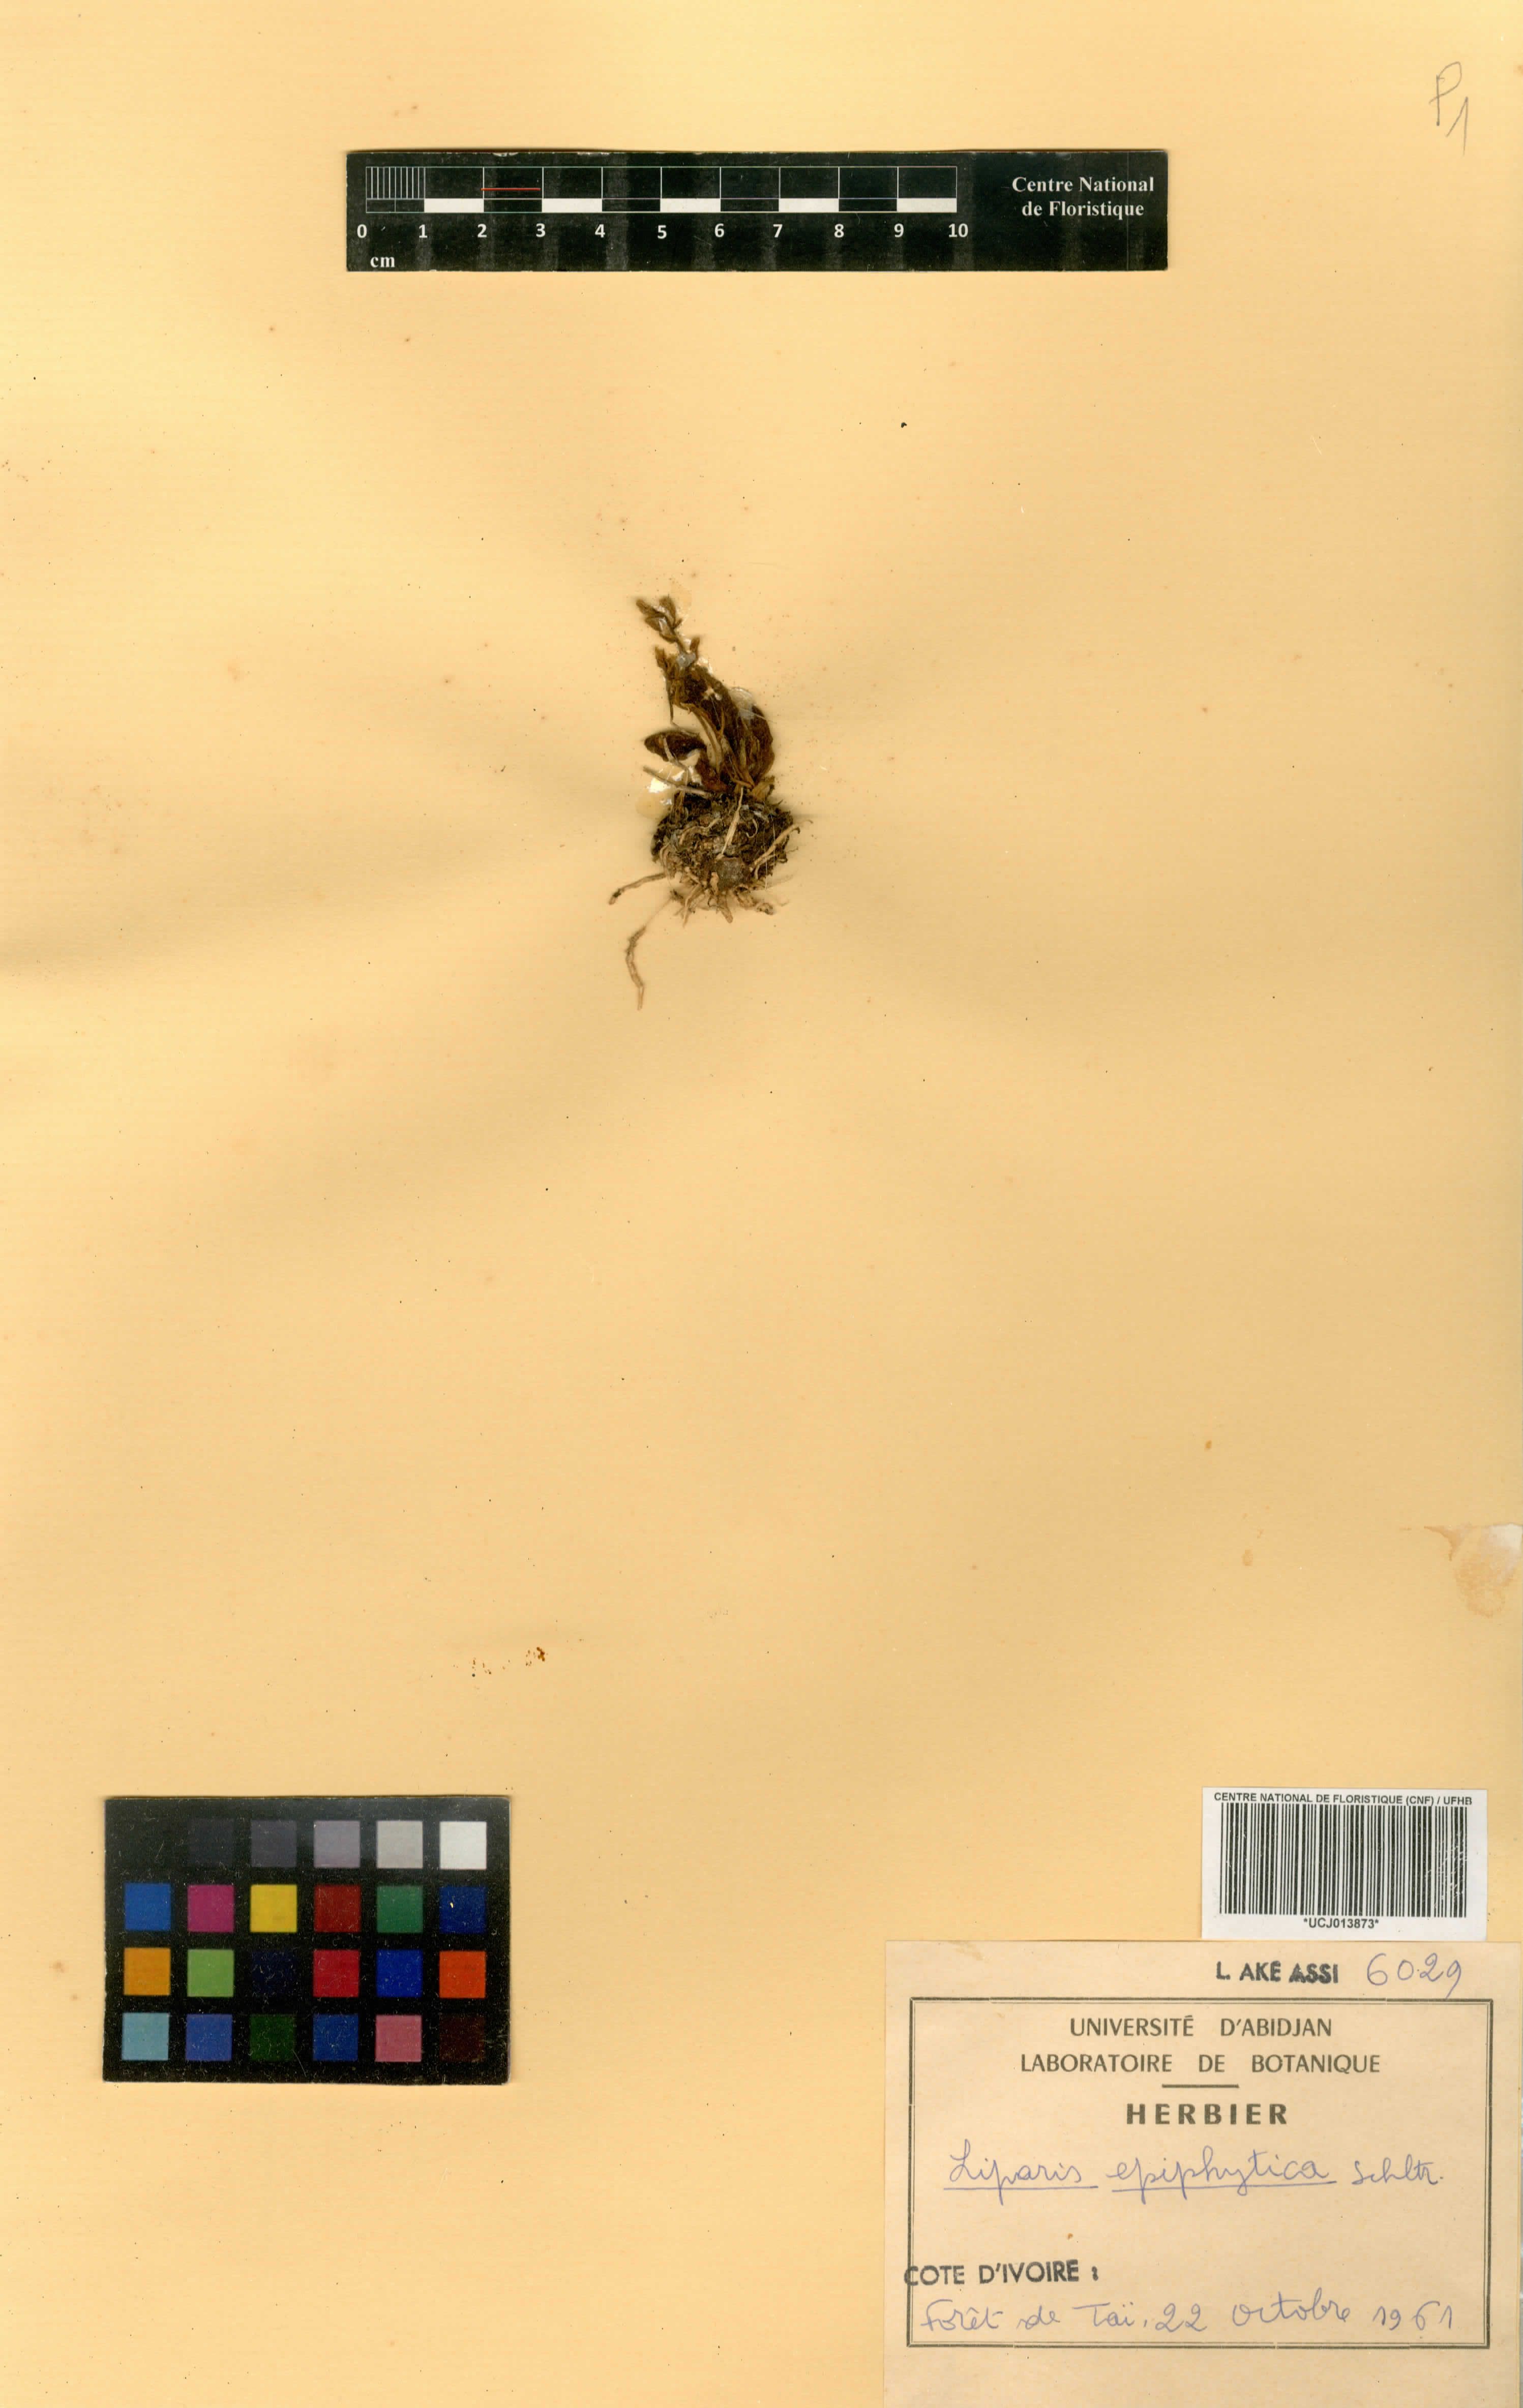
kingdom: Plantae
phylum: Tracheophyta
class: Liliopsida
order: Asparagales
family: Orchidaceae
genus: Liparis
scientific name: Liparis epiphytica
